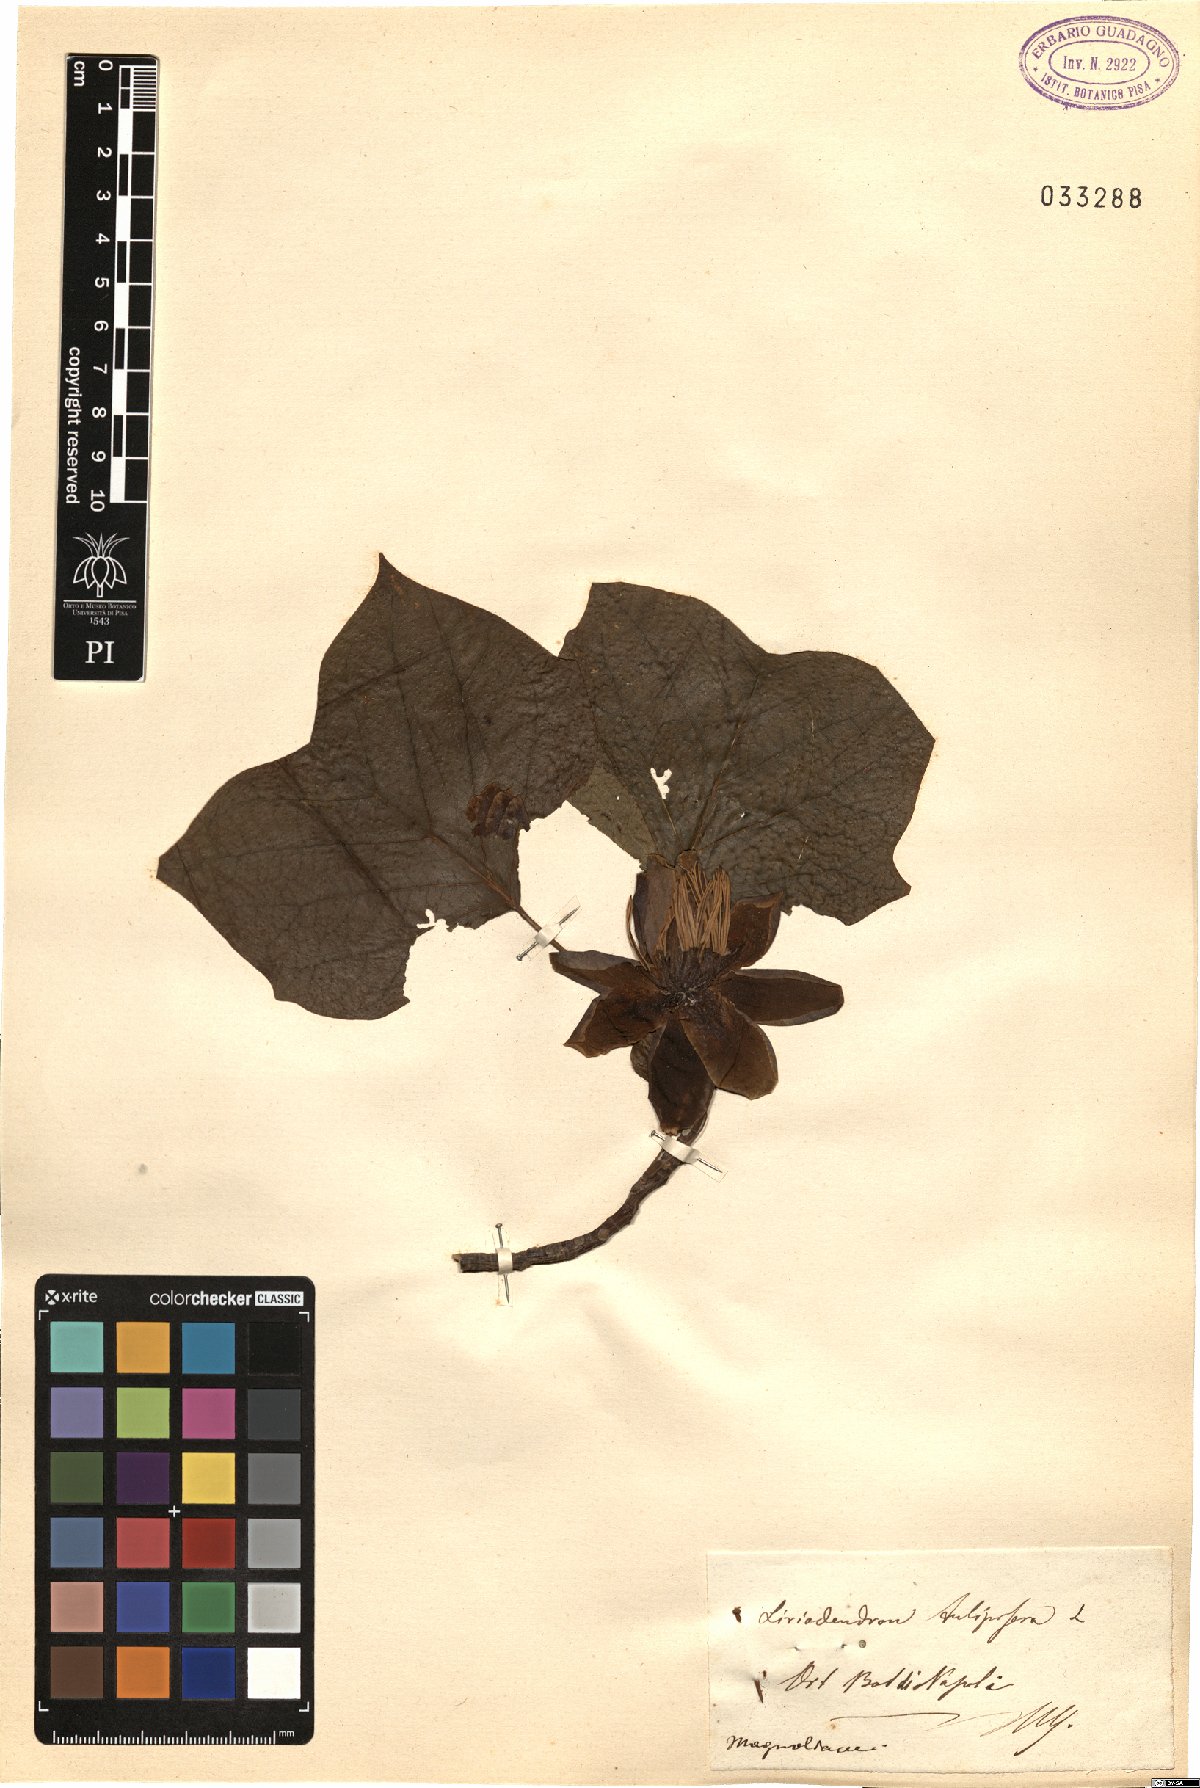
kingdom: Plantae
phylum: Tracheophyta
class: Magnoliopsida
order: Magnoliales
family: Magnoliaceae
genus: Liriodendron
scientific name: Liriodendron tulipifera
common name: Tulip tree
